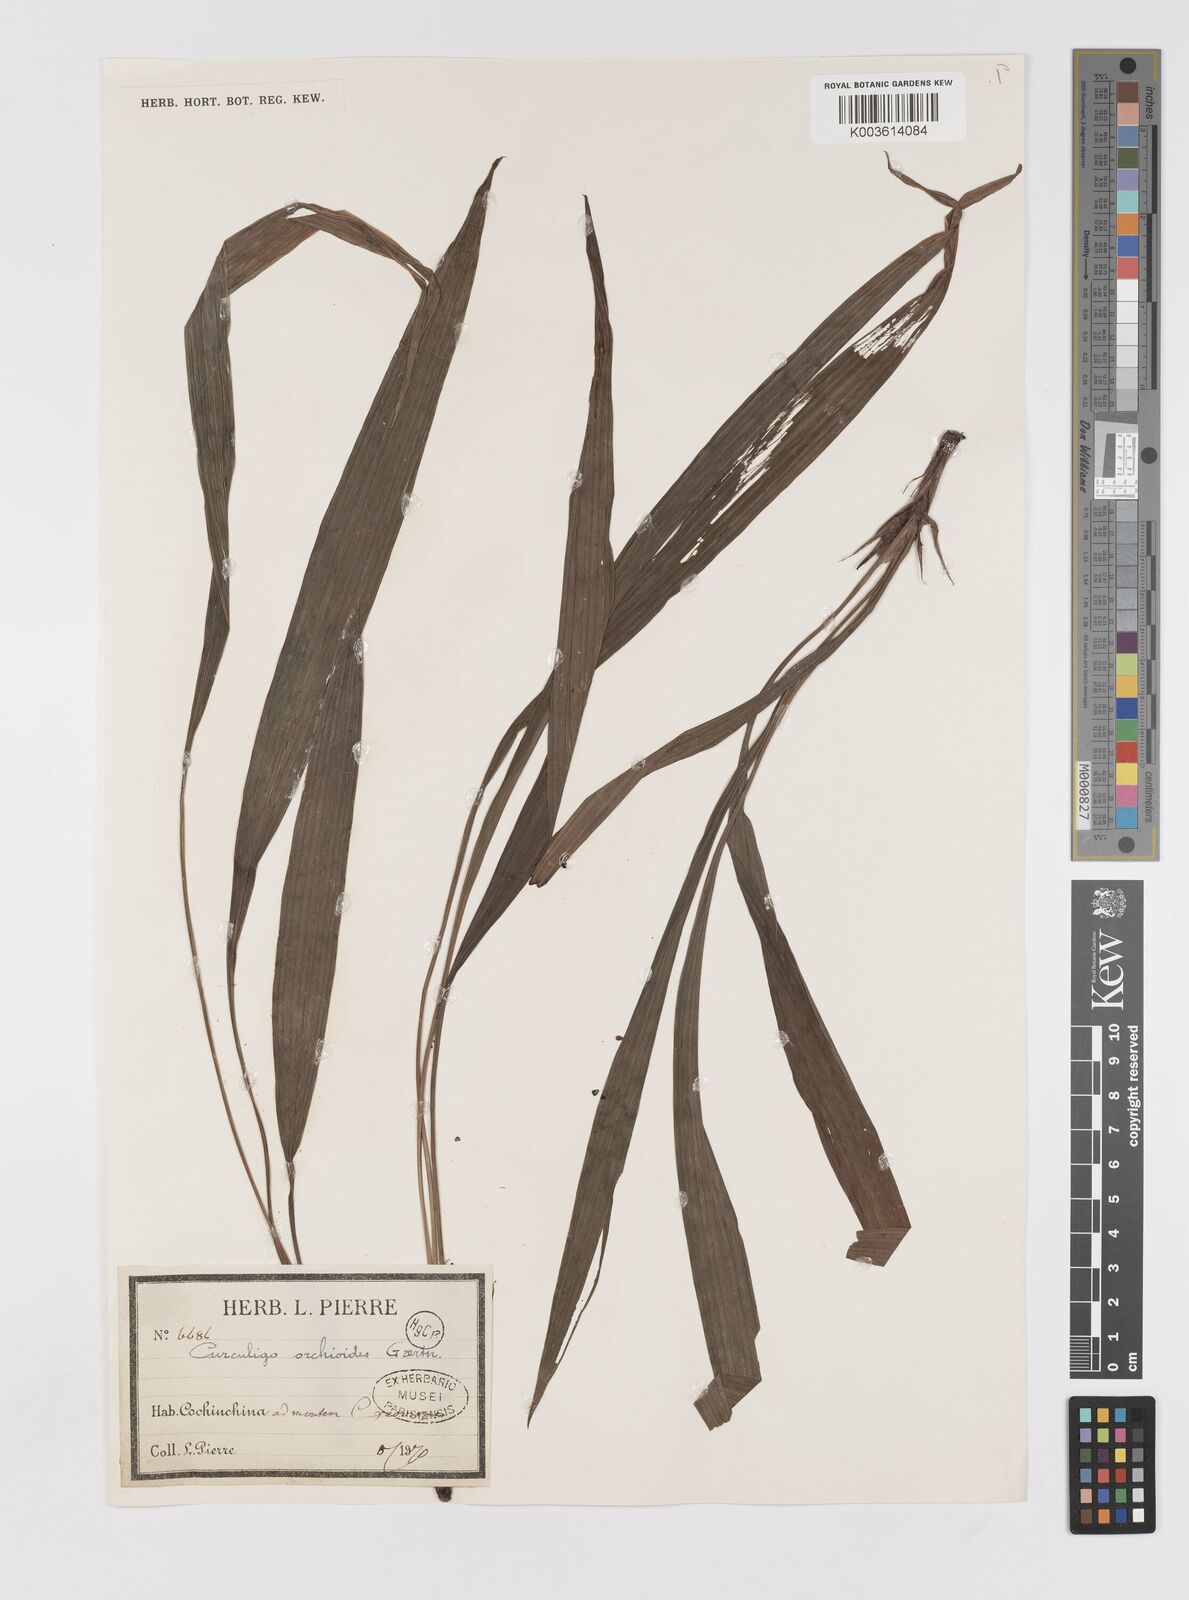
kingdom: Plantae
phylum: Tracheophyta
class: Liliopsida
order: Asparagales
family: Hypoxidaceae
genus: Curculigo
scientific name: Curculigo orchioides
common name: Golden eye-grass
